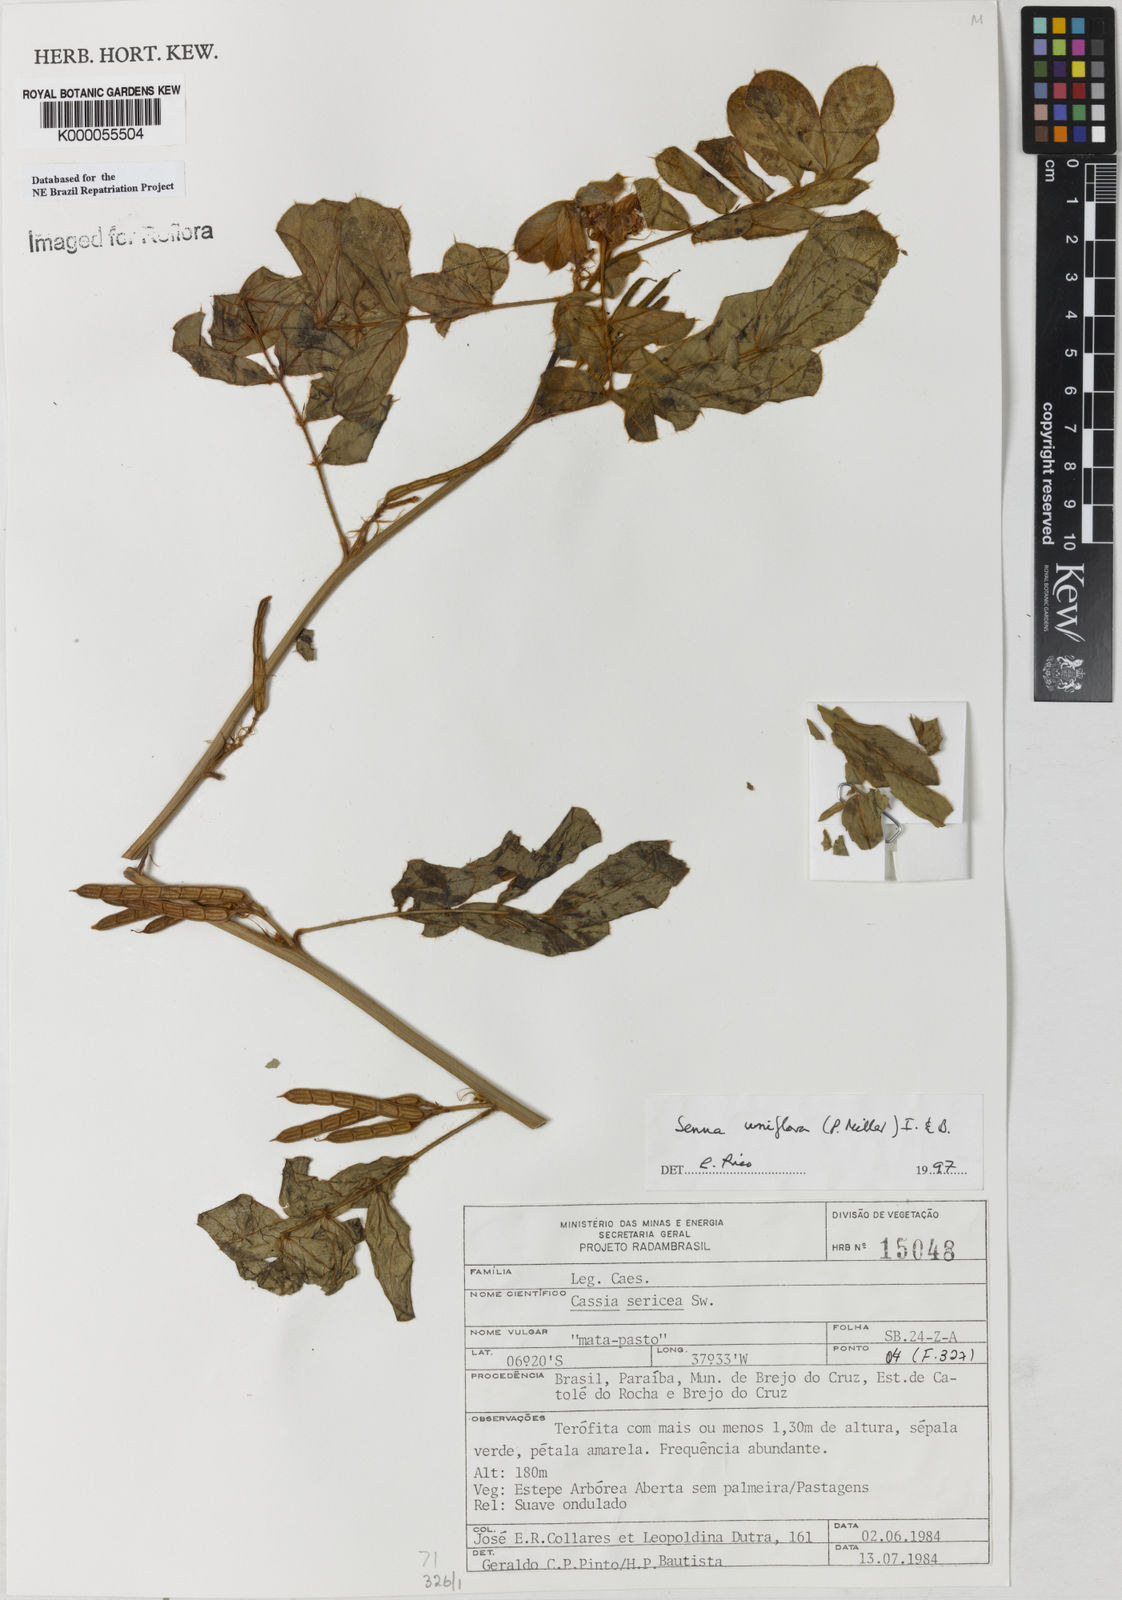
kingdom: Plantae
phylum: Tracheophyta
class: Magnoliopsida
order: Fabales
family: Fabaceae
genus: Senna
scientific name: Senna uniflora
